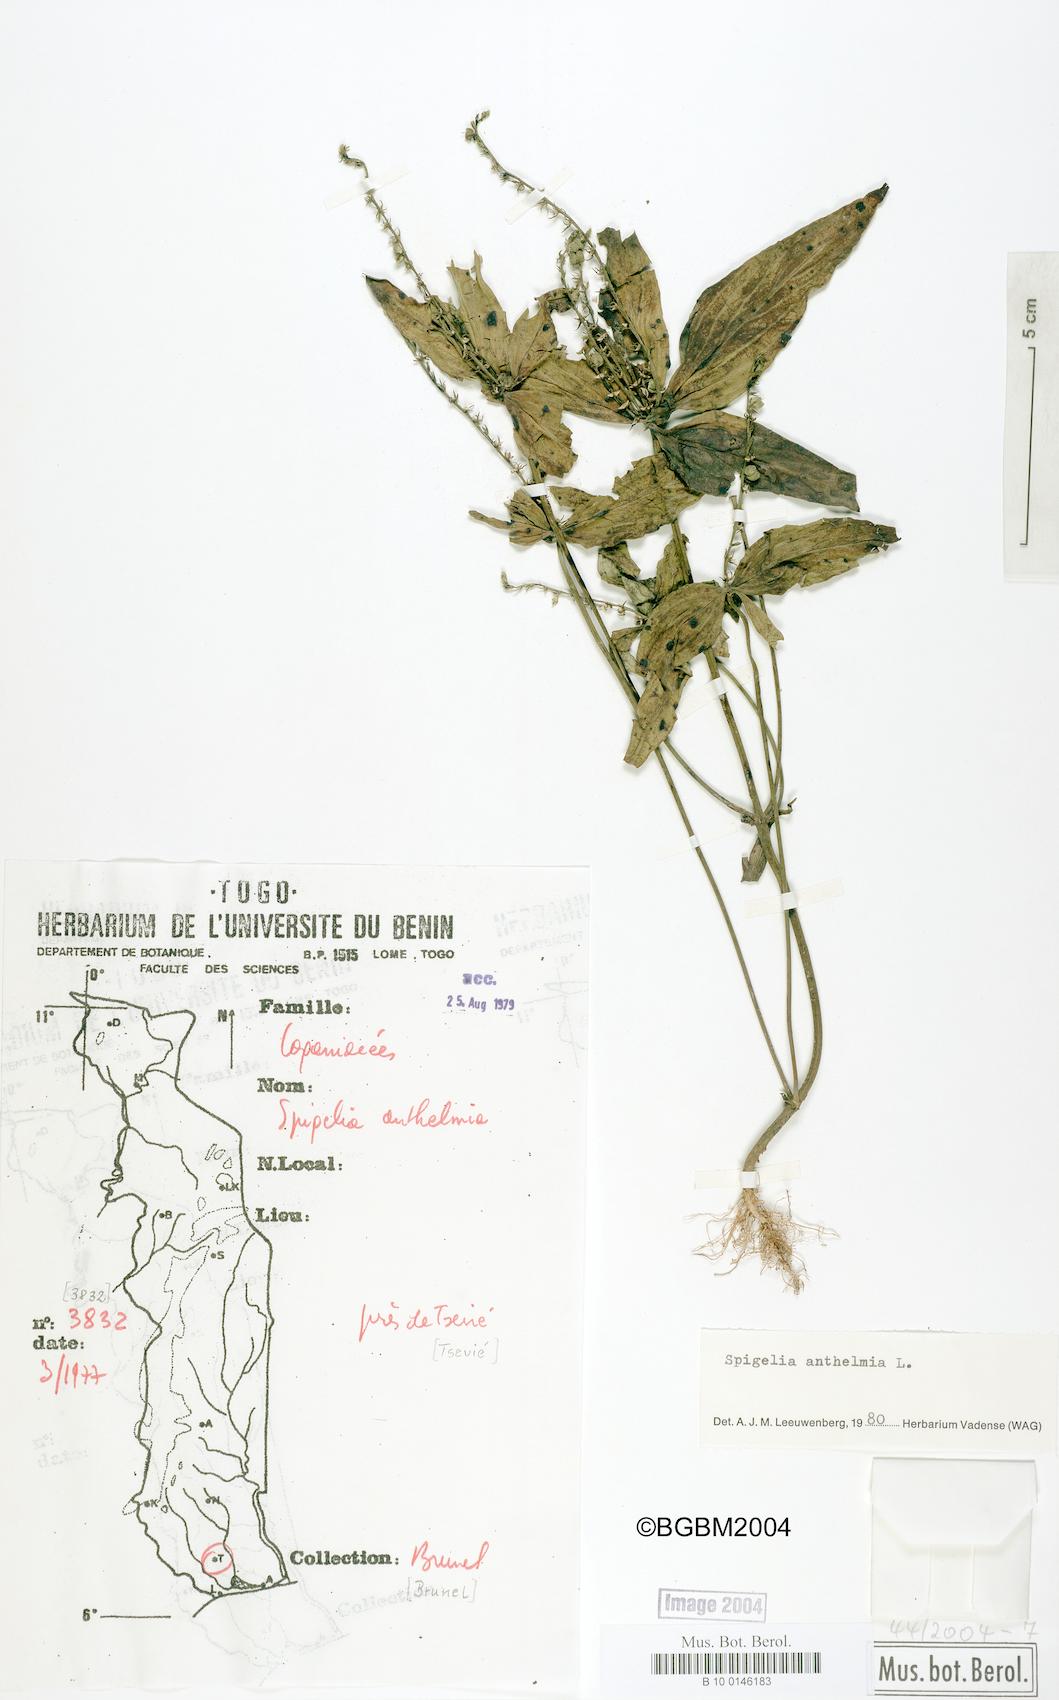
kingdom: Plantae
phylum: Tracheophyta
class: Magnoliopsida
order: Gentianales
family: Loganiaceae
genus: Spigelia
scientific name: Spigelia anthelmia
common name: West indian-pink
